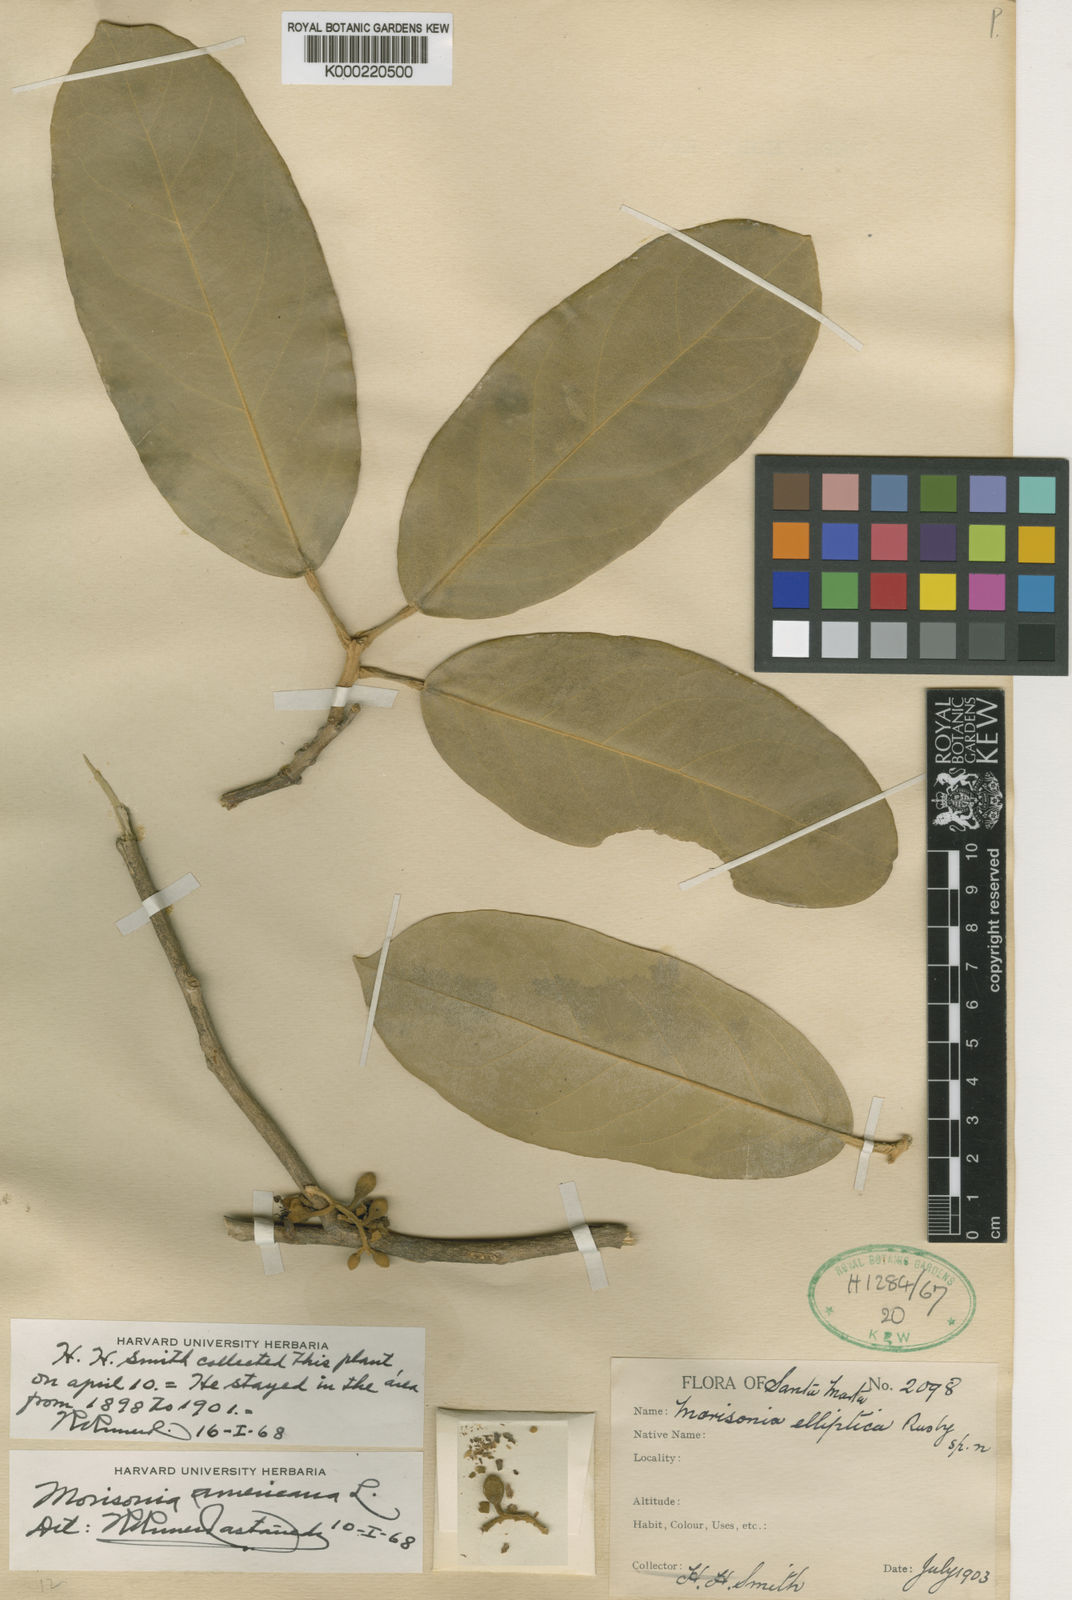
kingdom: Plantae
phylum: Tracheophyta
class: Magnoliopsida
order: Brassicales
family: Capparaceae
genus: Morisonia
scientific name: Morisonia americana
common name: Wild mesple
